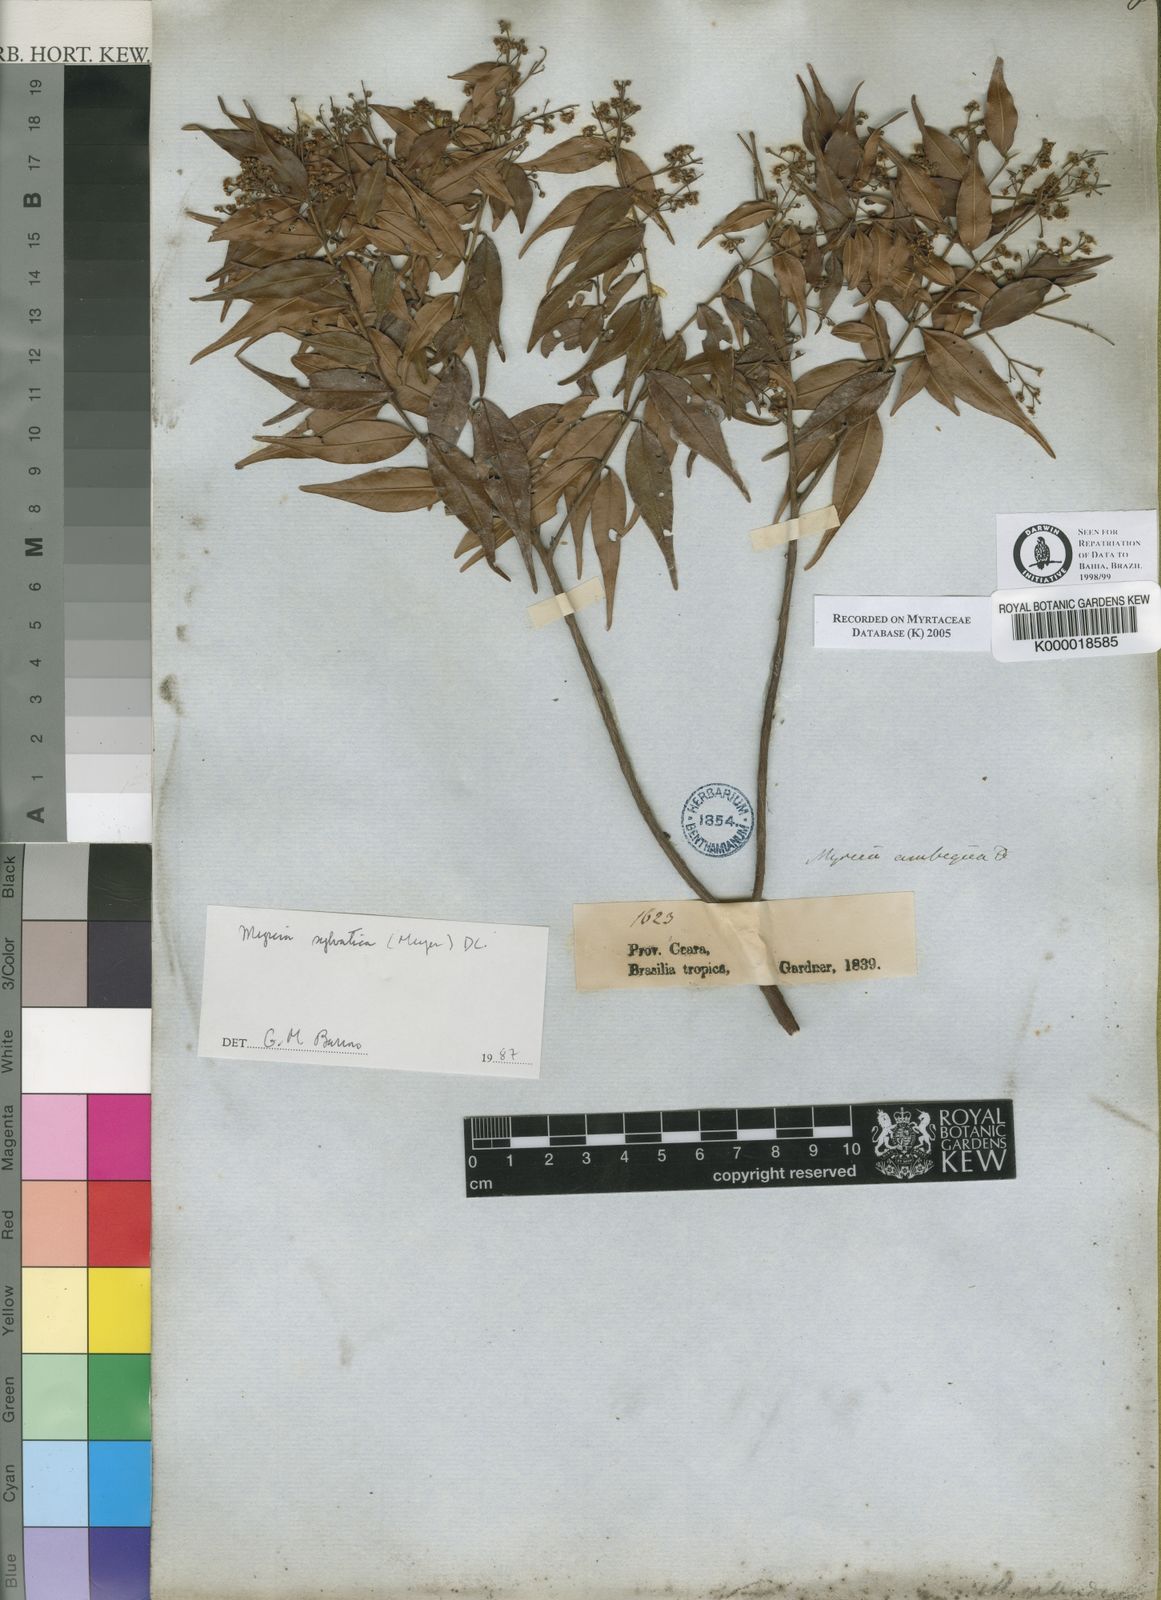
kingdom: Plantae
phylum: Tracheophyta
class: Magnoliopsida
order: Myrtales
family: Myrtaceae
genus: Myrcia
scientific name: Myrcia sylvatica
